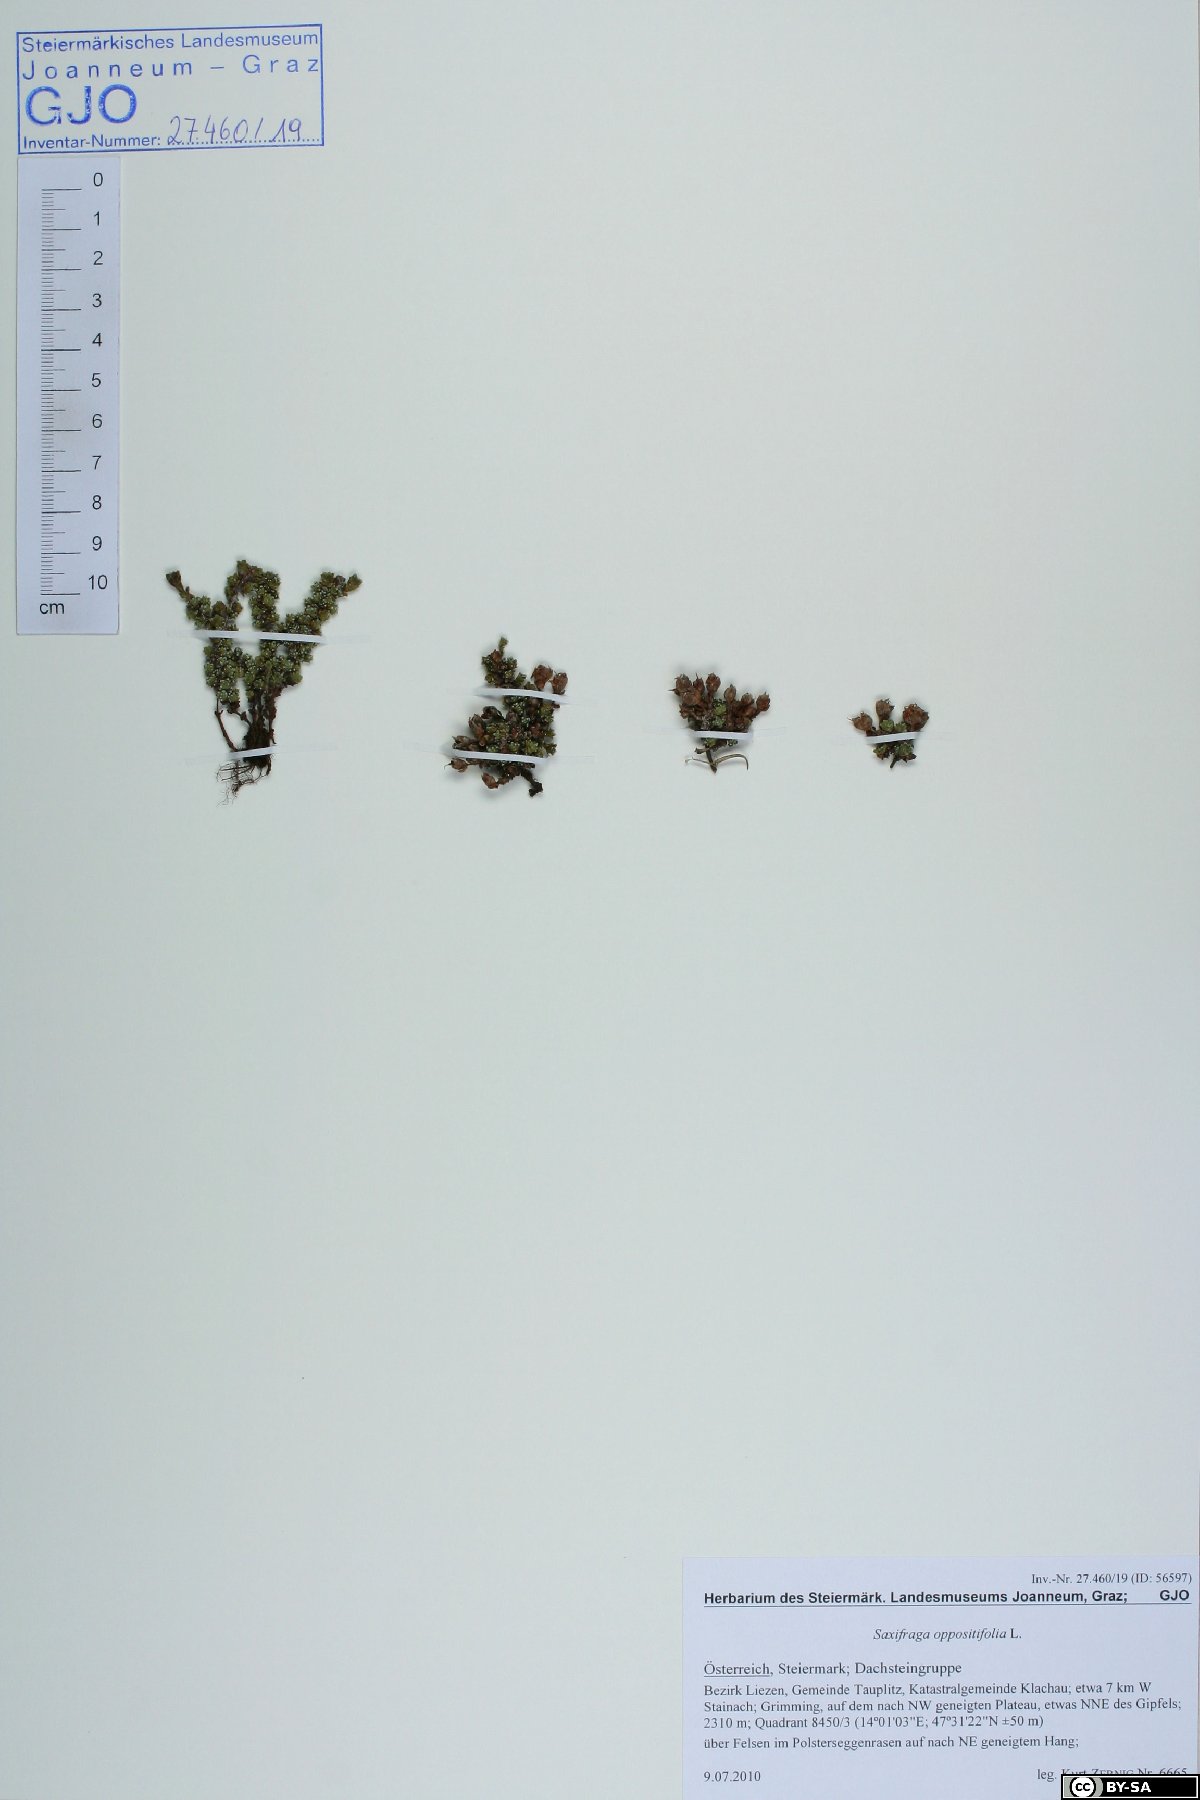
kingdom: Plantae
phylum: Tracheophyta
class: Magnoliopsida
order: Saxifragales
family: Saxifragaceae
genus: Saxifraga
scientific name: Saxifraga oppositifolia
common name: Purple saxifrage
